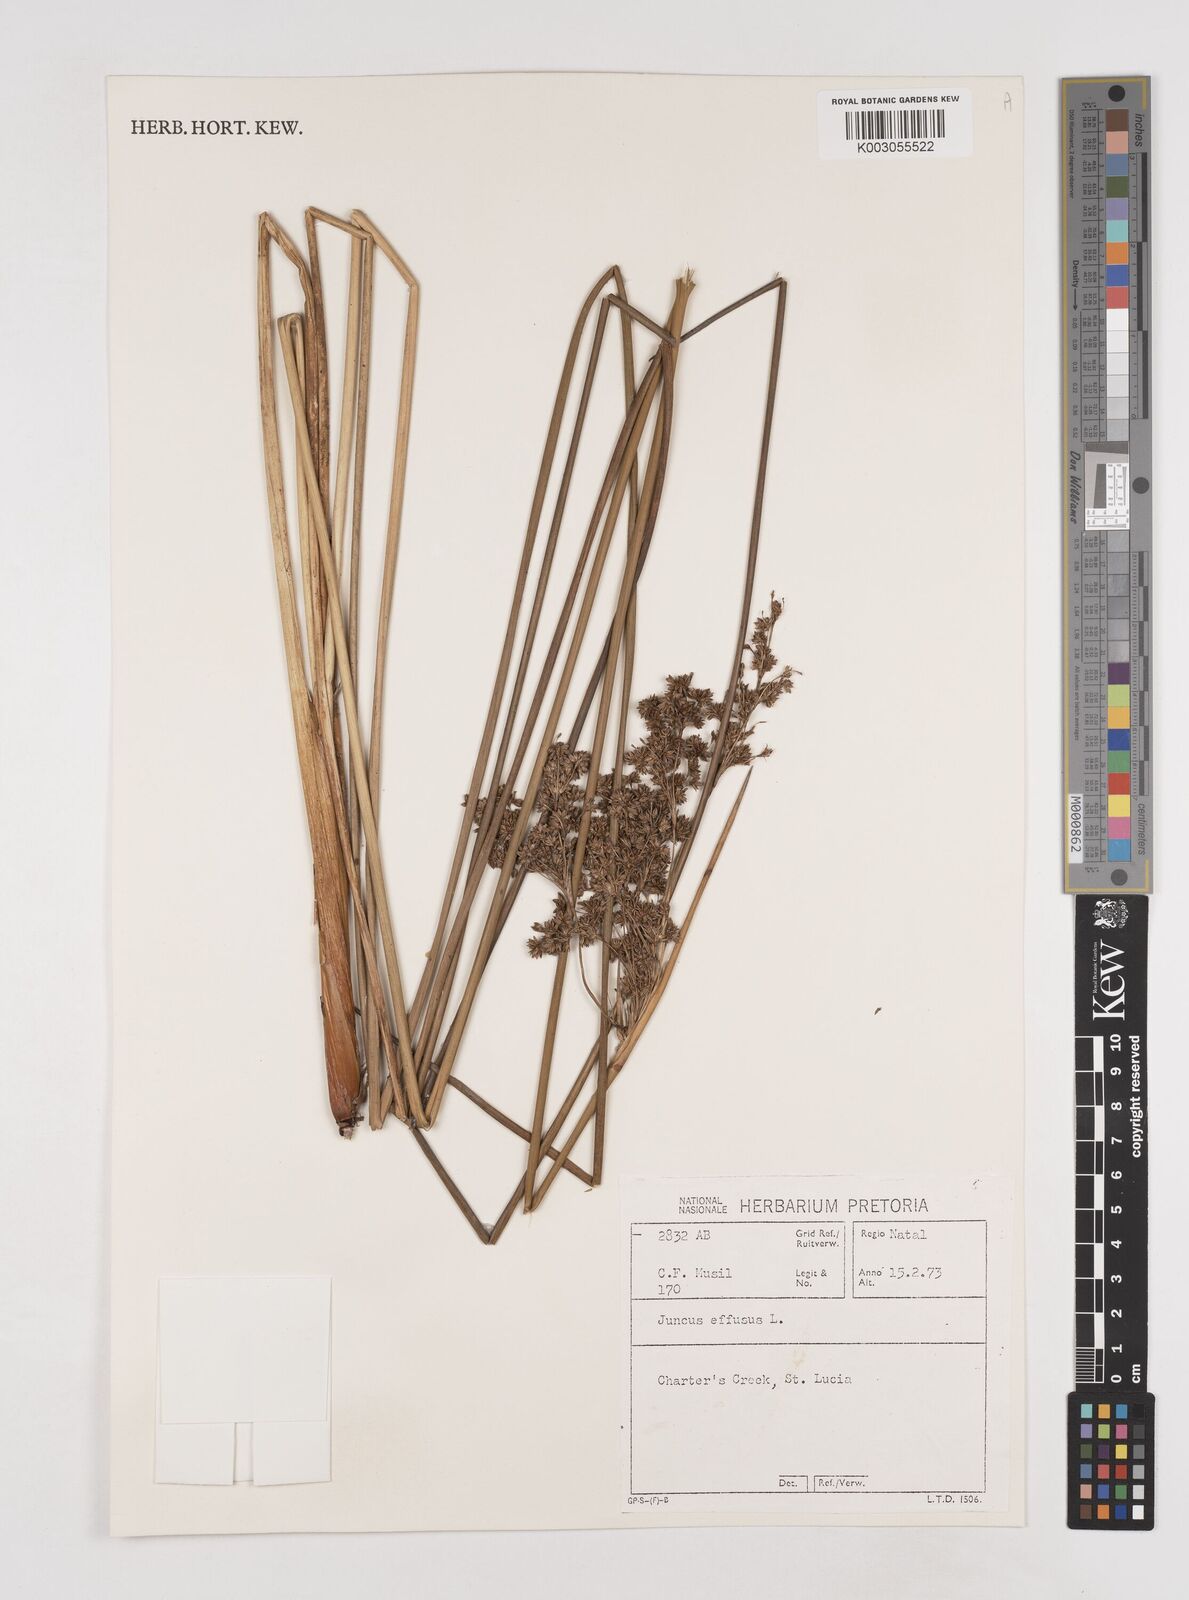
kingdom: Plantae
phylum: Tracheophyta
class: Liliopsida
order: Poales
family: Juncaceae
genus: Juncus
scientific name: Juncus effusus
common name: Soft rush
